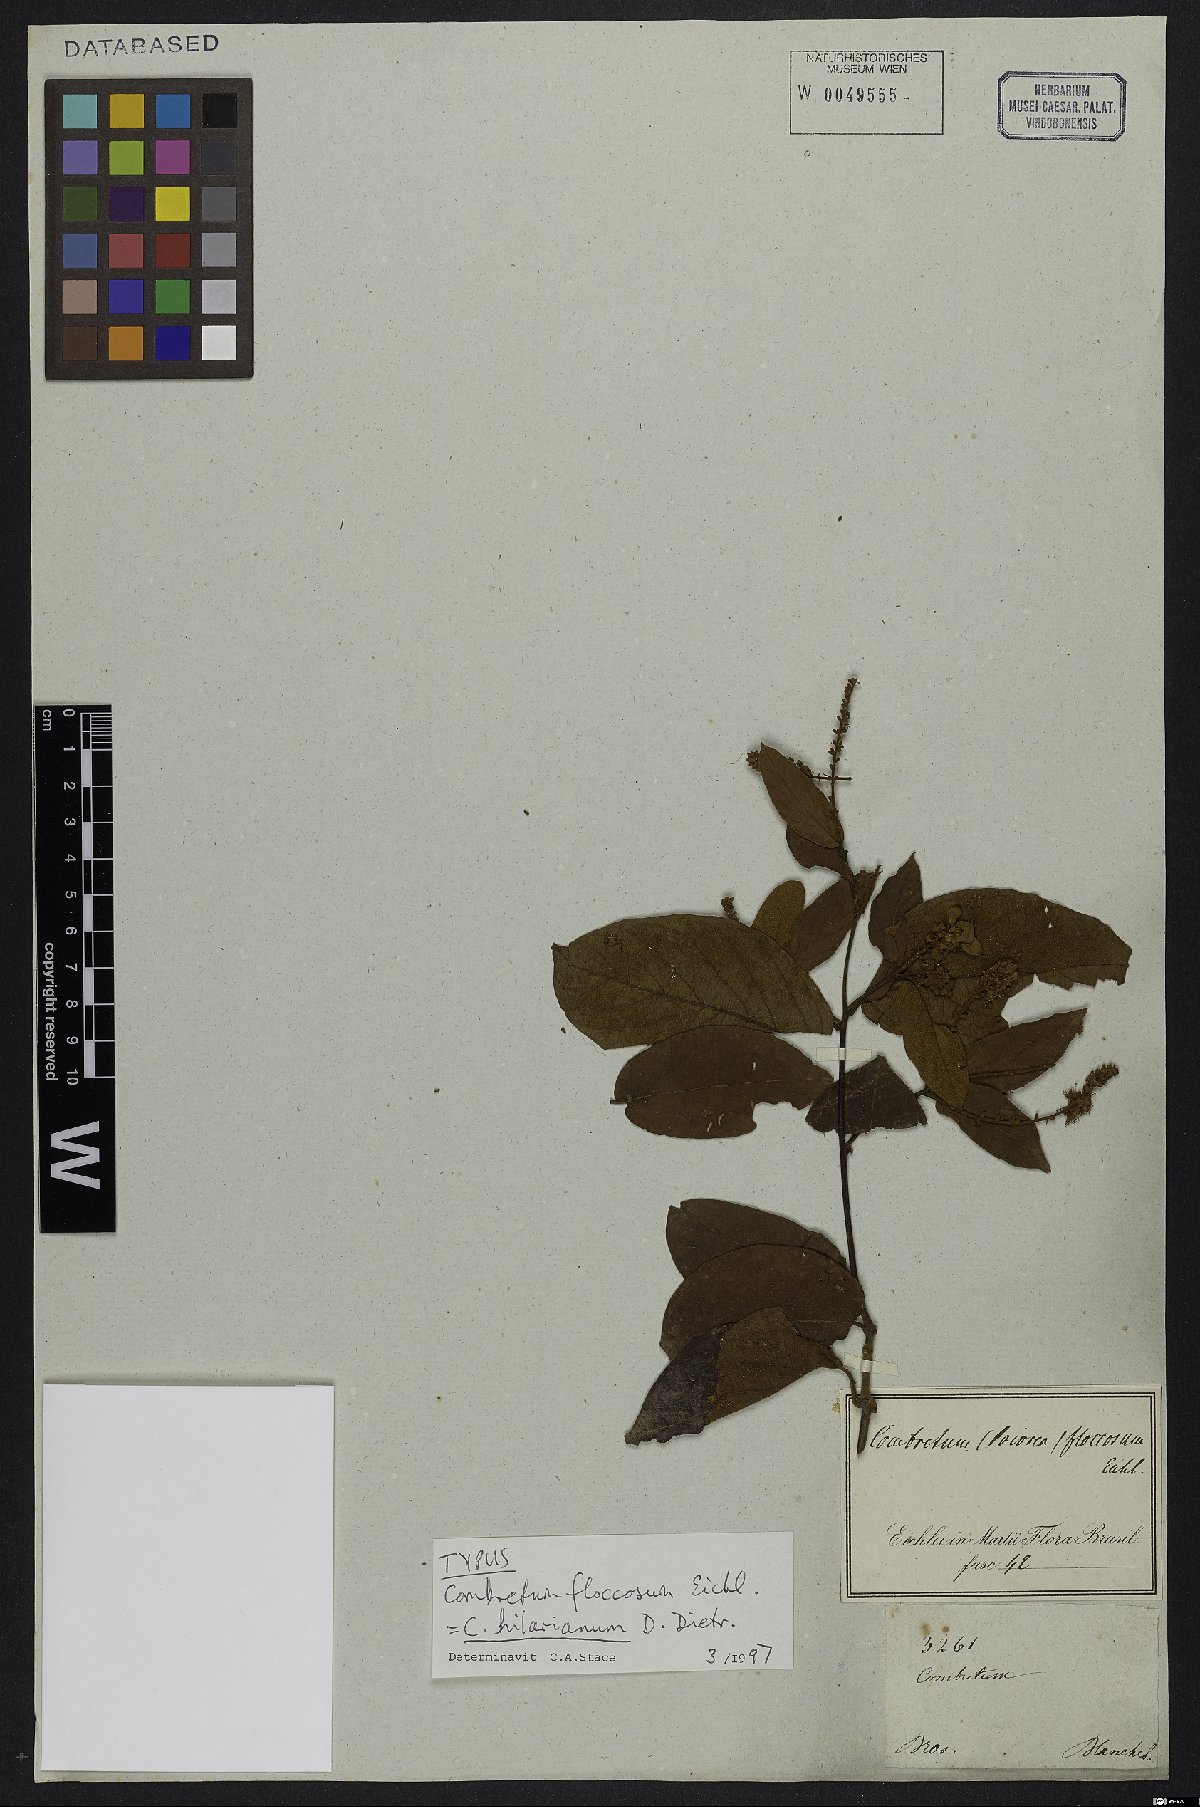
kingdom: Plantae
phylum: Tracheophyta
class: Magnoliopsida
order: Myrtales
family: Combretaceae
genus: Combretum
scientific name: Combretum hilarianum
